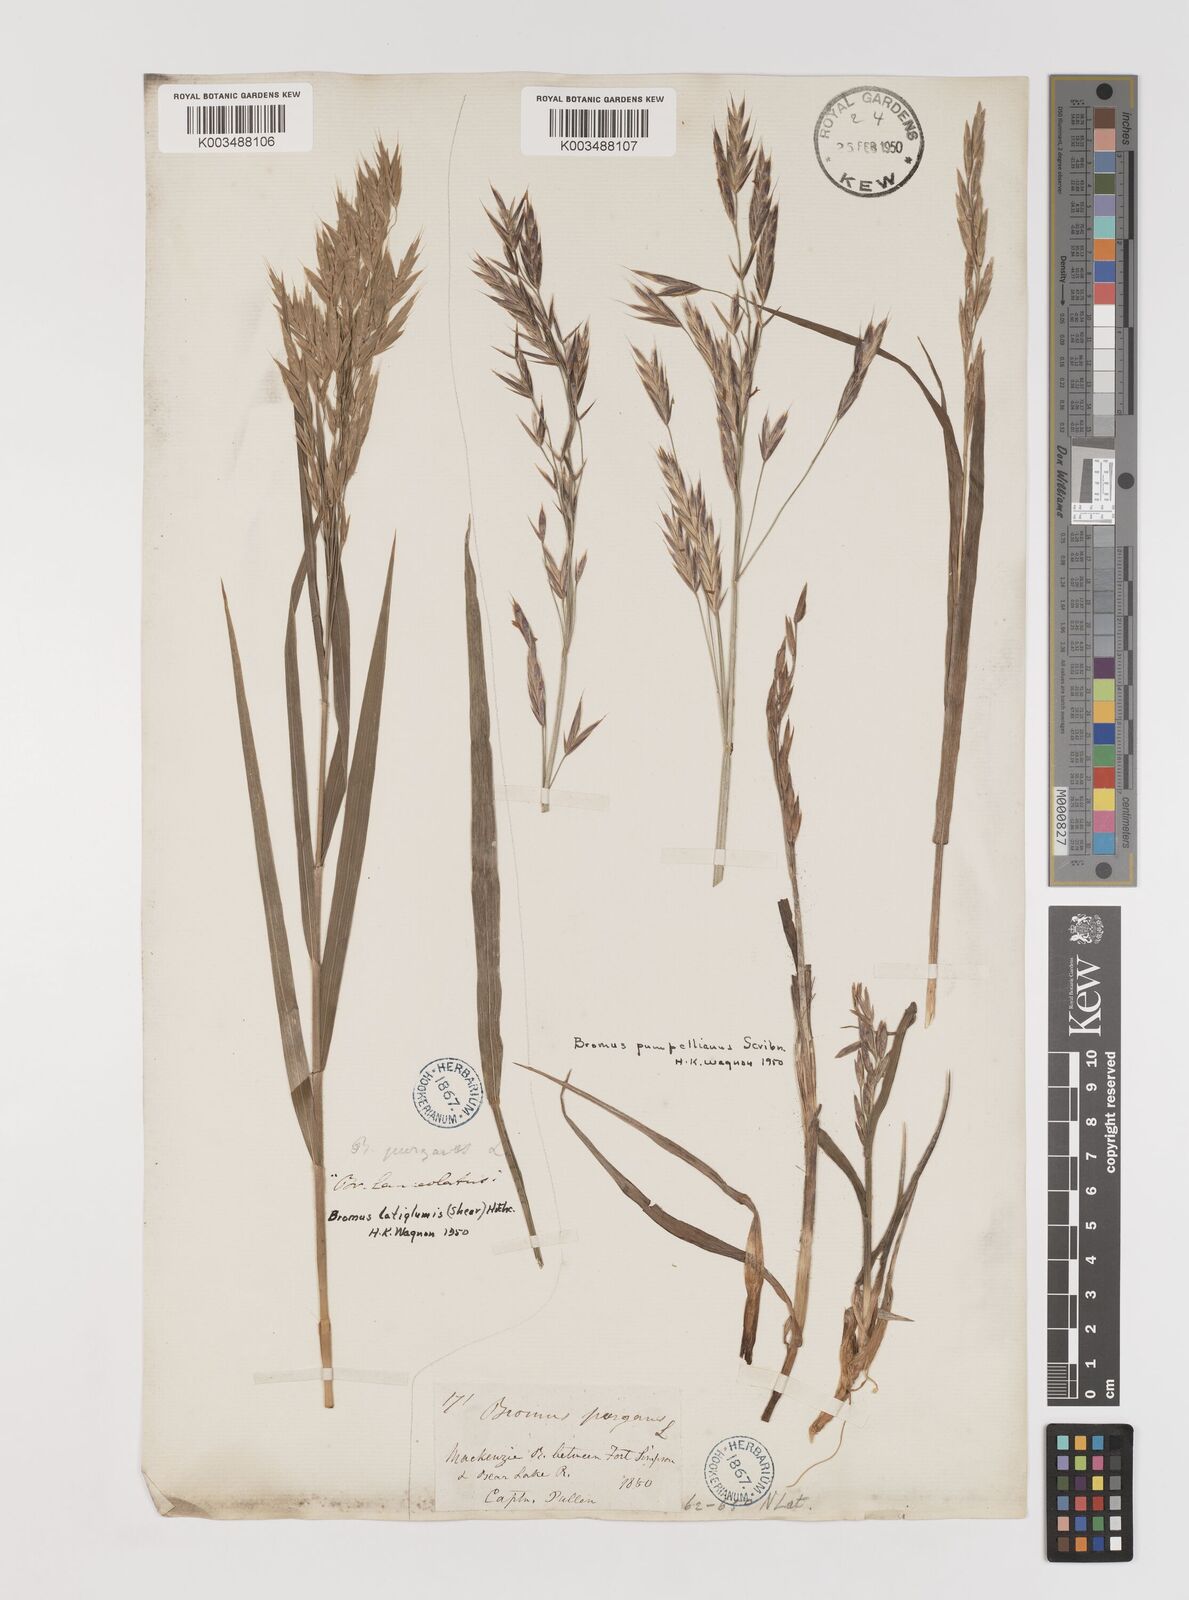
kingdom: Plantae
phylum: Tracheophyta
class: Liliopsida
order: Poales
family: Poaceae
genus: Bromus
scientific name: Bromus pumpellianus
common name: Pumpelly's brome
